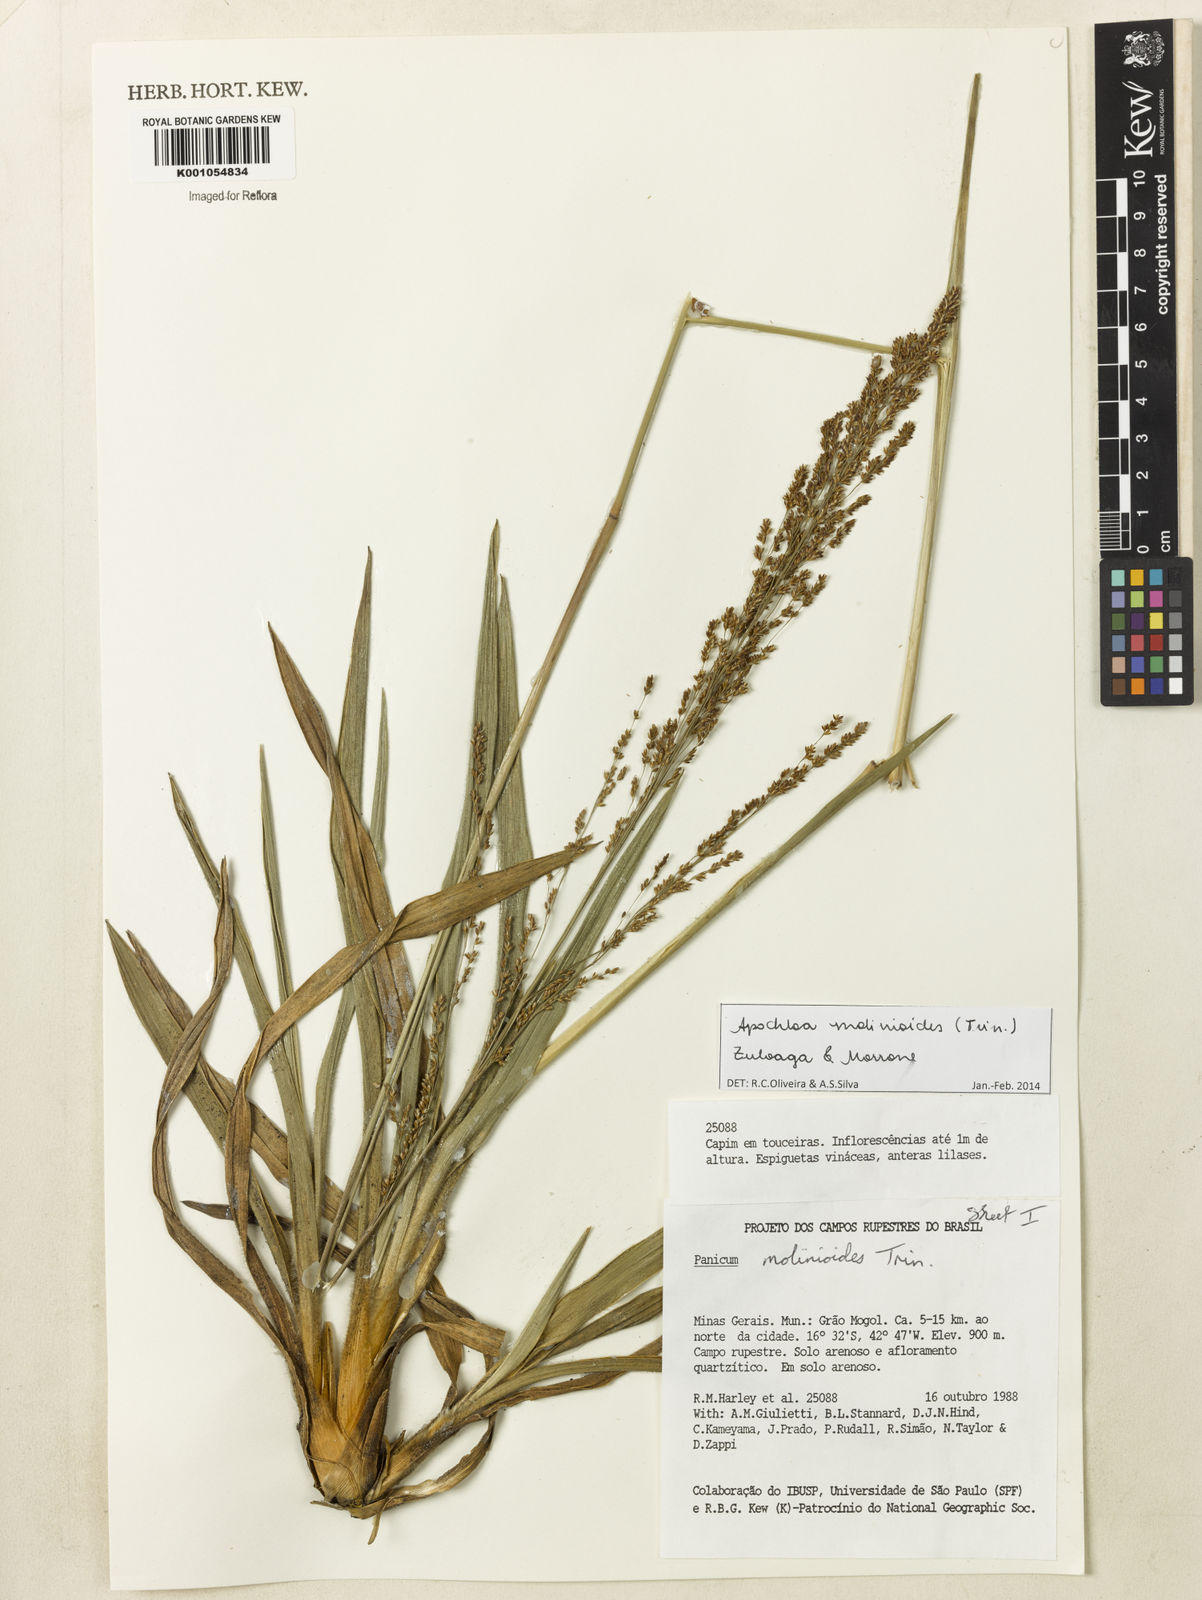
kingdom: Plantae
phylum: Tracheophyta
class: Liliopsida
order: Poales
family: Poaceae
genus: Apochloa
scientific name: Apochloa molinioides
